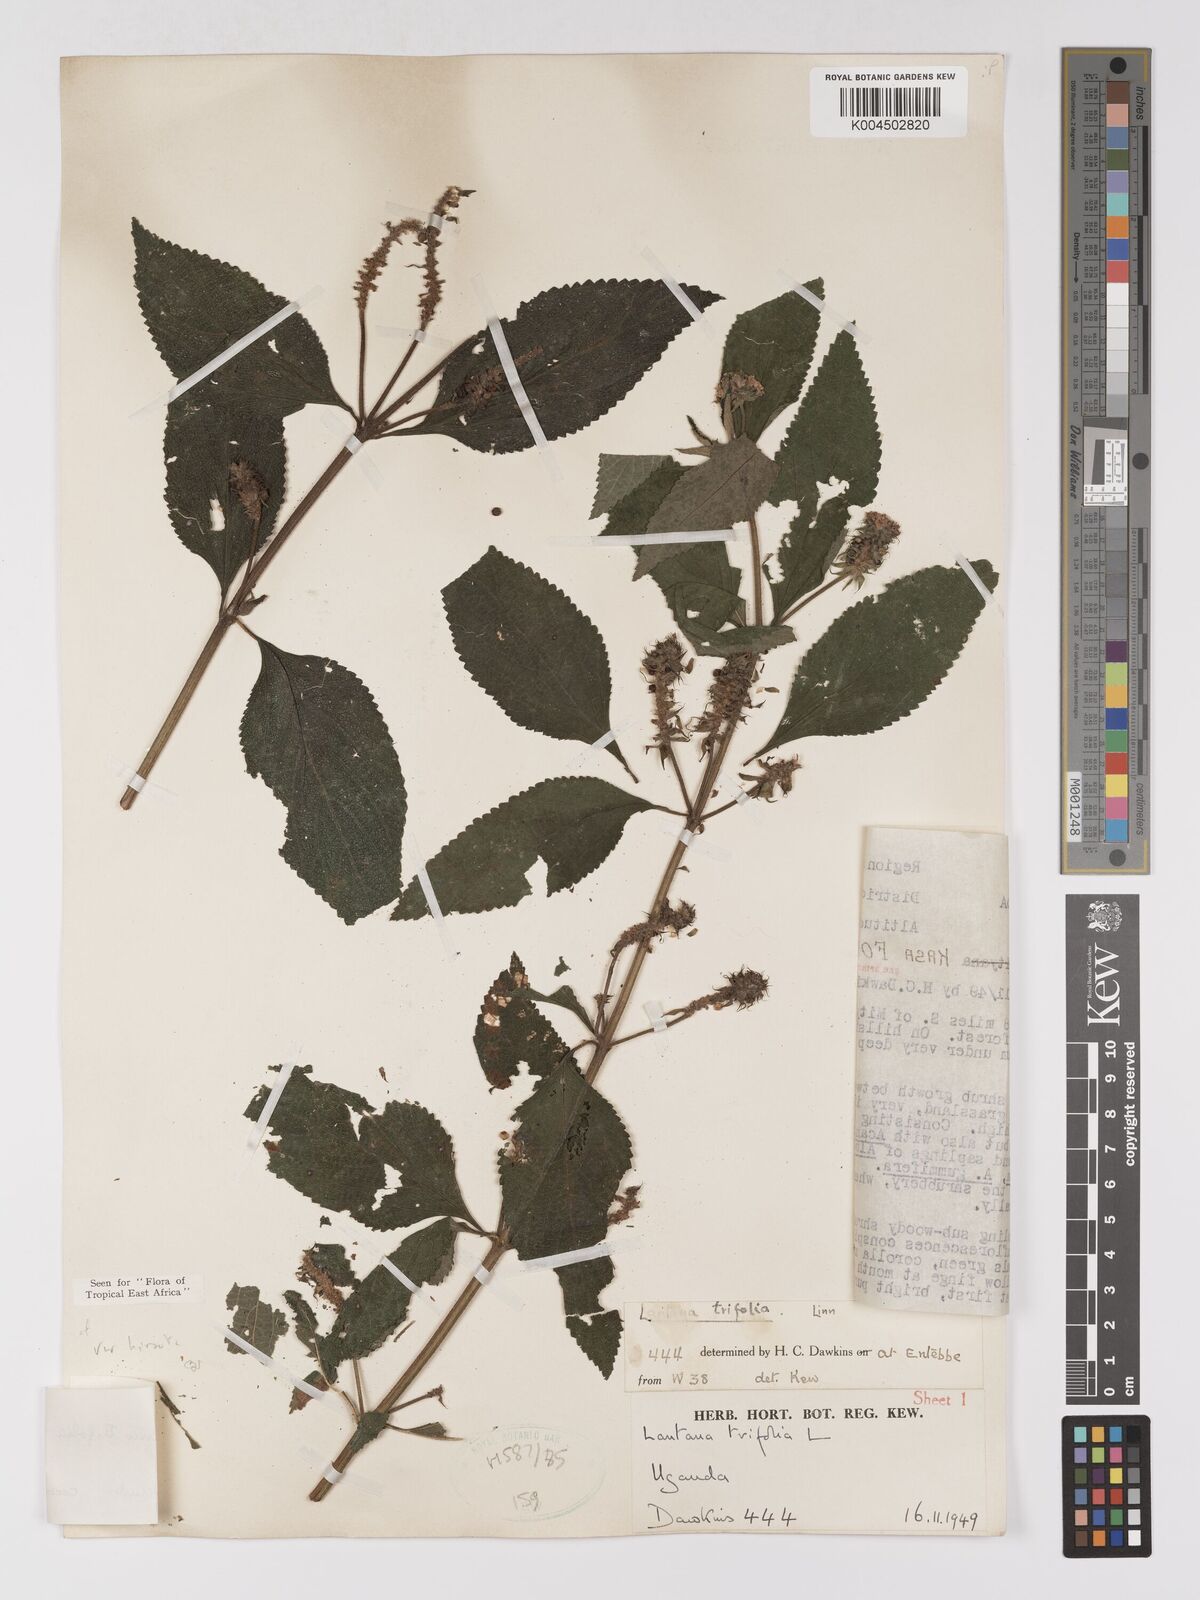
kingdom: Plantae
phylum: Tracheophyta
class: Magnoliopsida
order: Lamiales
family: Verbenaceae
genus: Lantana
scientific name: Lantana trifolia
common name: Sweet-sage
